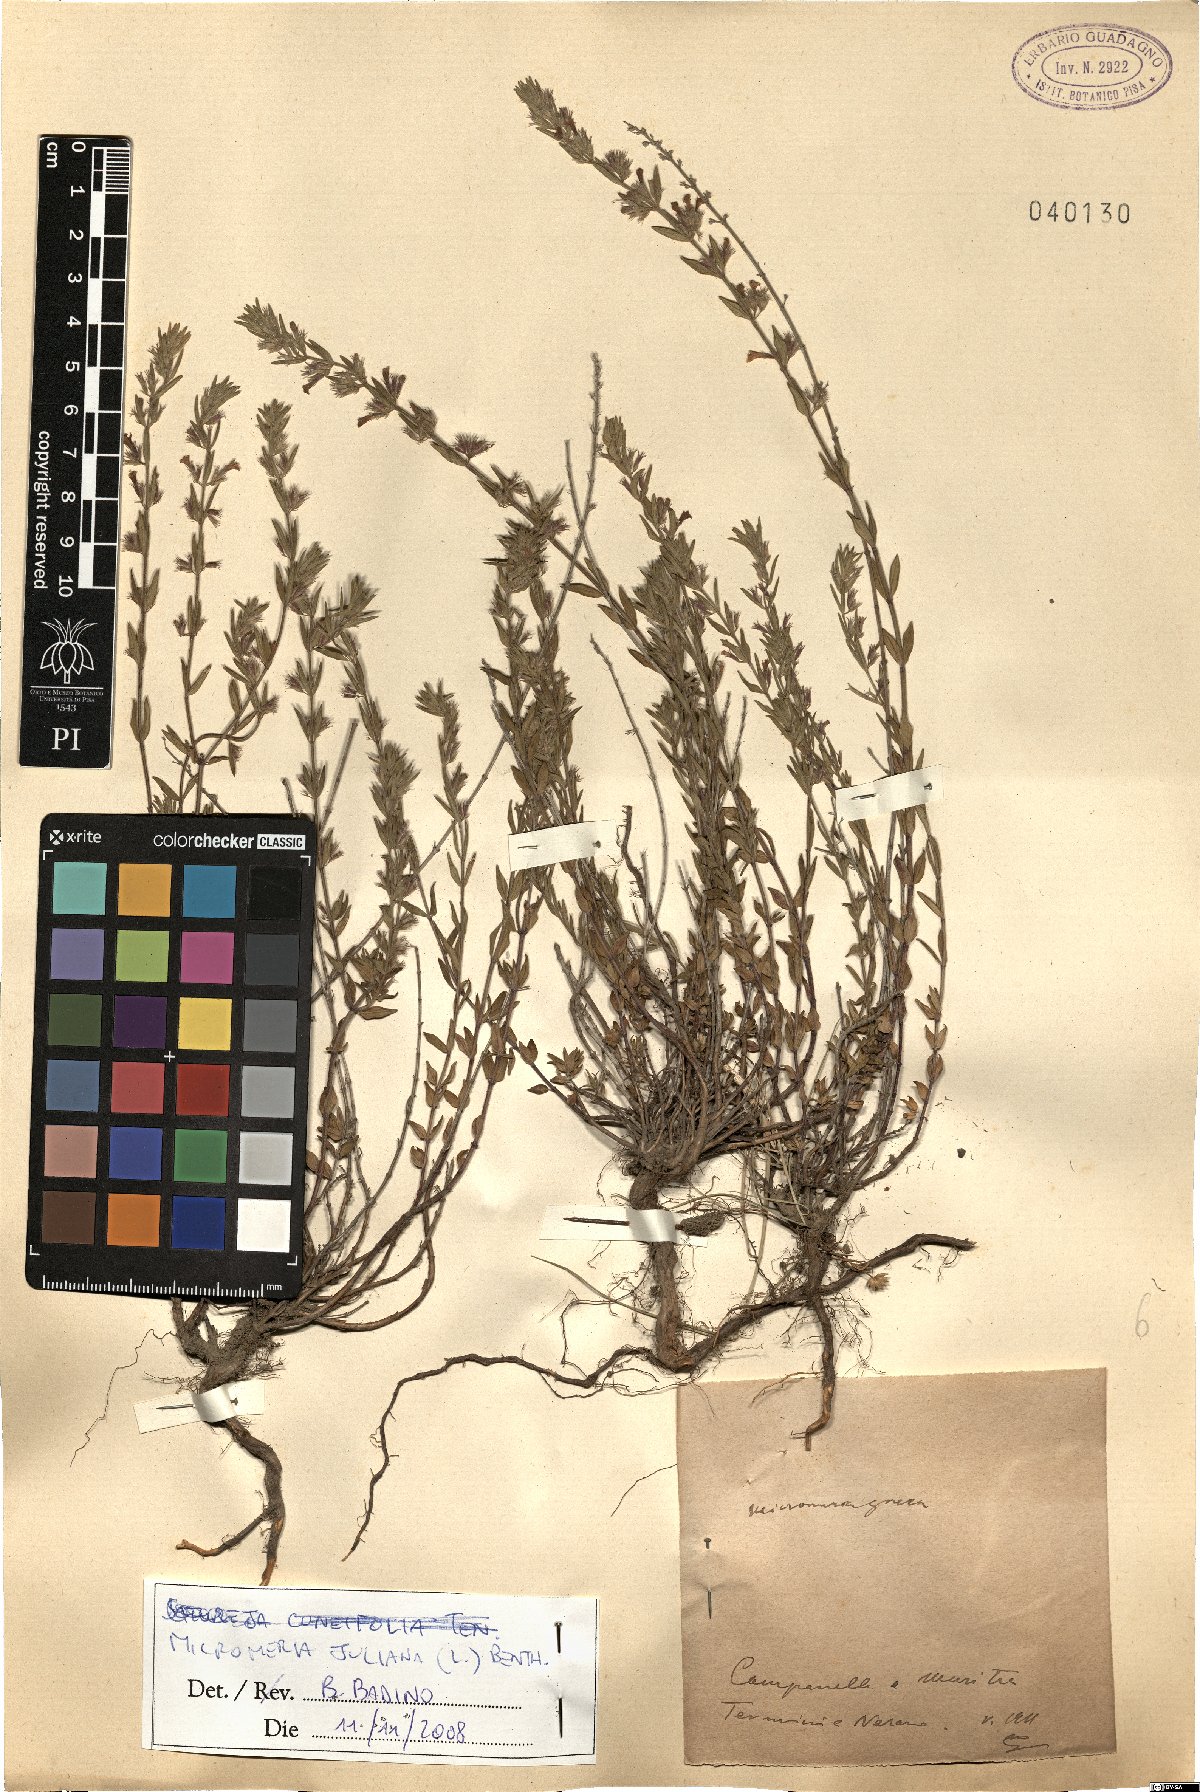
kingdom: Plantae
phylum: Tracheophyta
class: Magnoliopsida
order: Lamiales
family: Lamiaceae
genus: Micromeria
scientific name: Micromeria juliana
